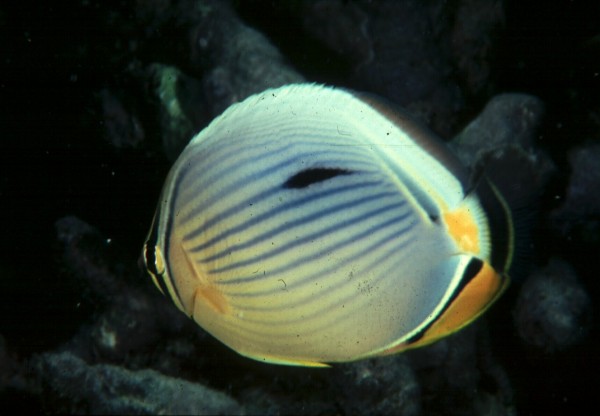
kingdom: Animalia
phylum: Chordata
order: Perciformes
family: Chaetodontidae
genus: Chaetodon
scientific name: Chaetodon trifasciatus
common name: Redfin butterflyfish
